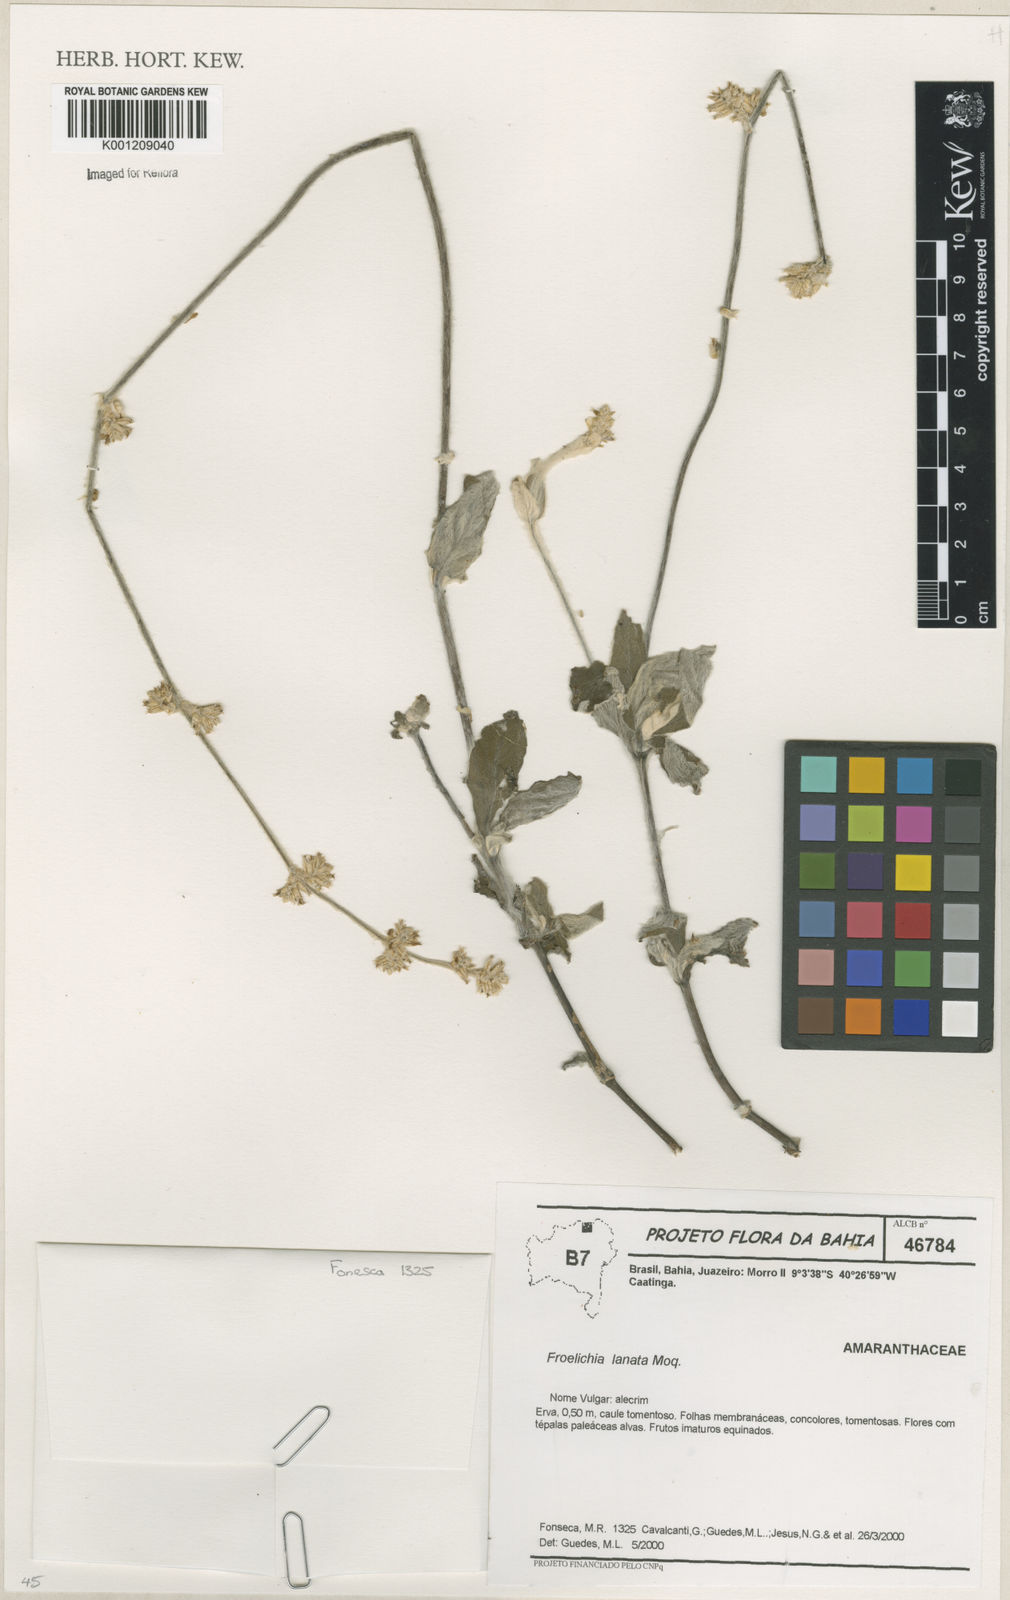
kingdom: Plantae
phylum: Tracheophyta
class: Magnoliopsida
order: Caryophyllales
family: Amaranthaceae
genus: Froelichia
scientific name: Froelichia humboldtiana
